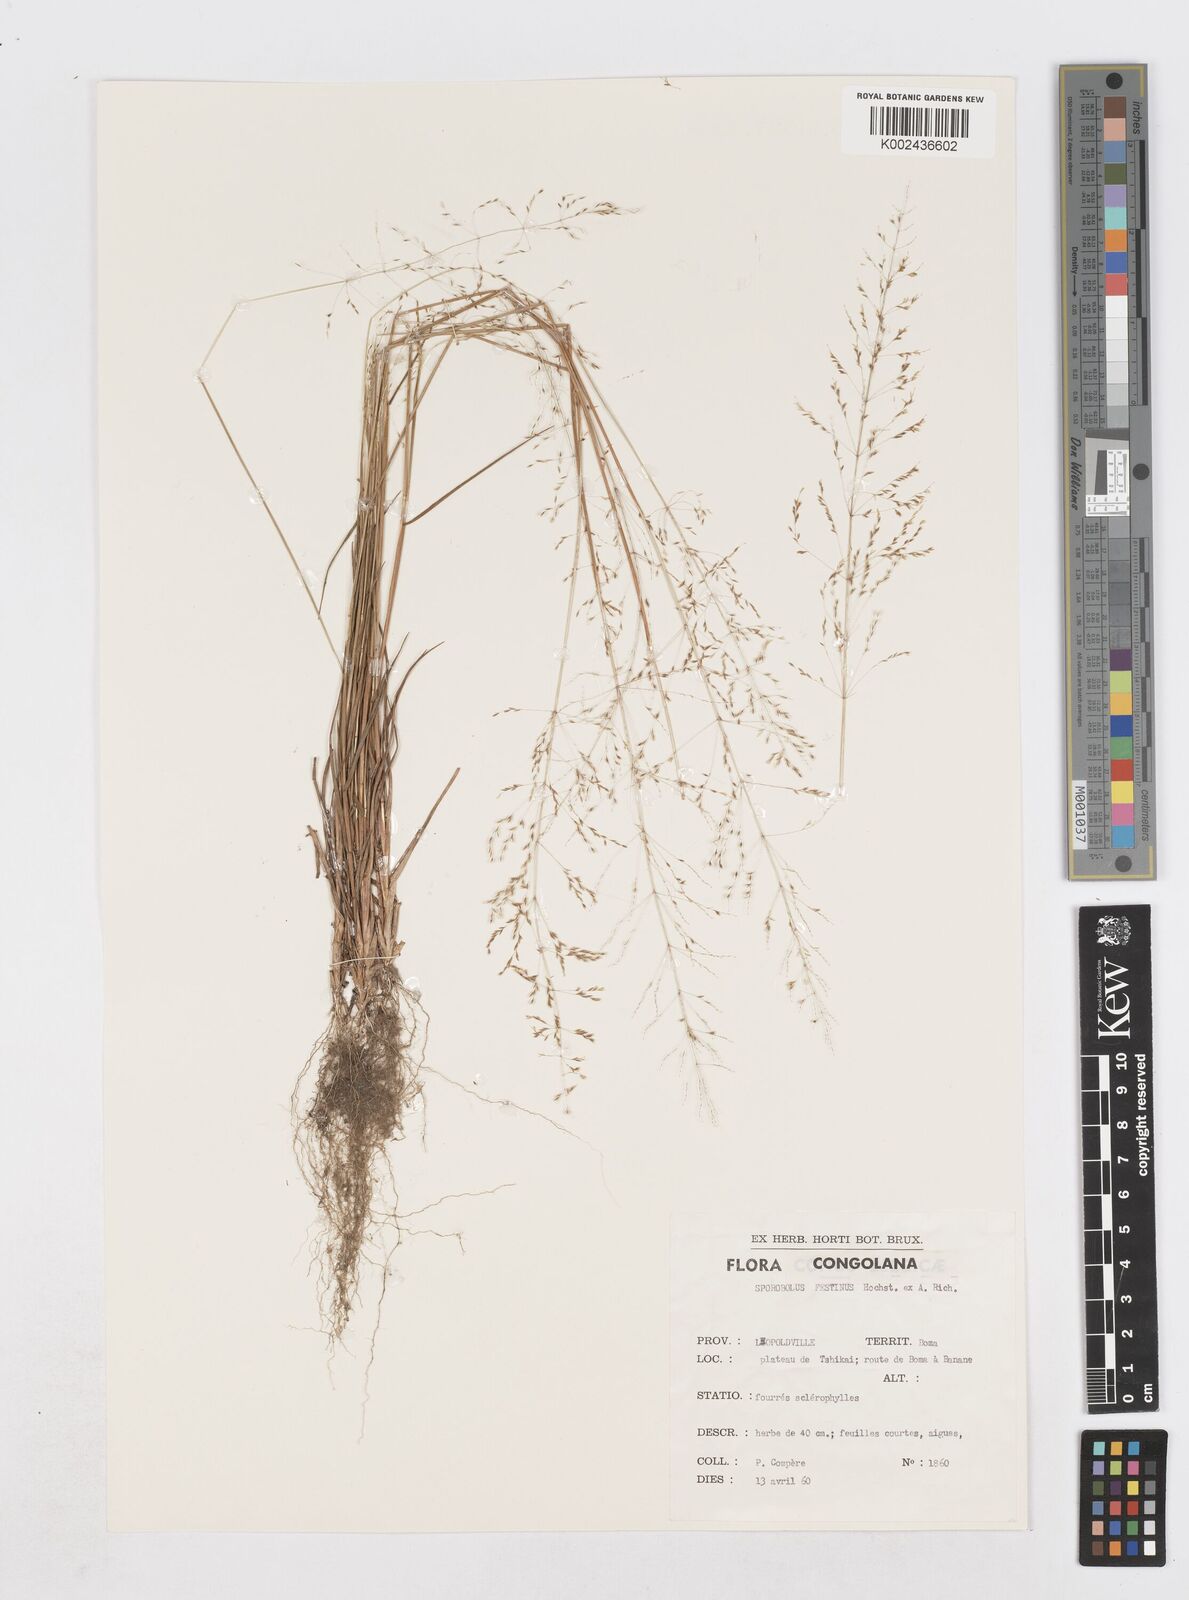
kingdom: Plantae
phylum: Tracheophyta
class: Liliopsida
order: Poales
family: Poaceae
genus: Sporobolus
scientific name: Sporobolus paniculatus
